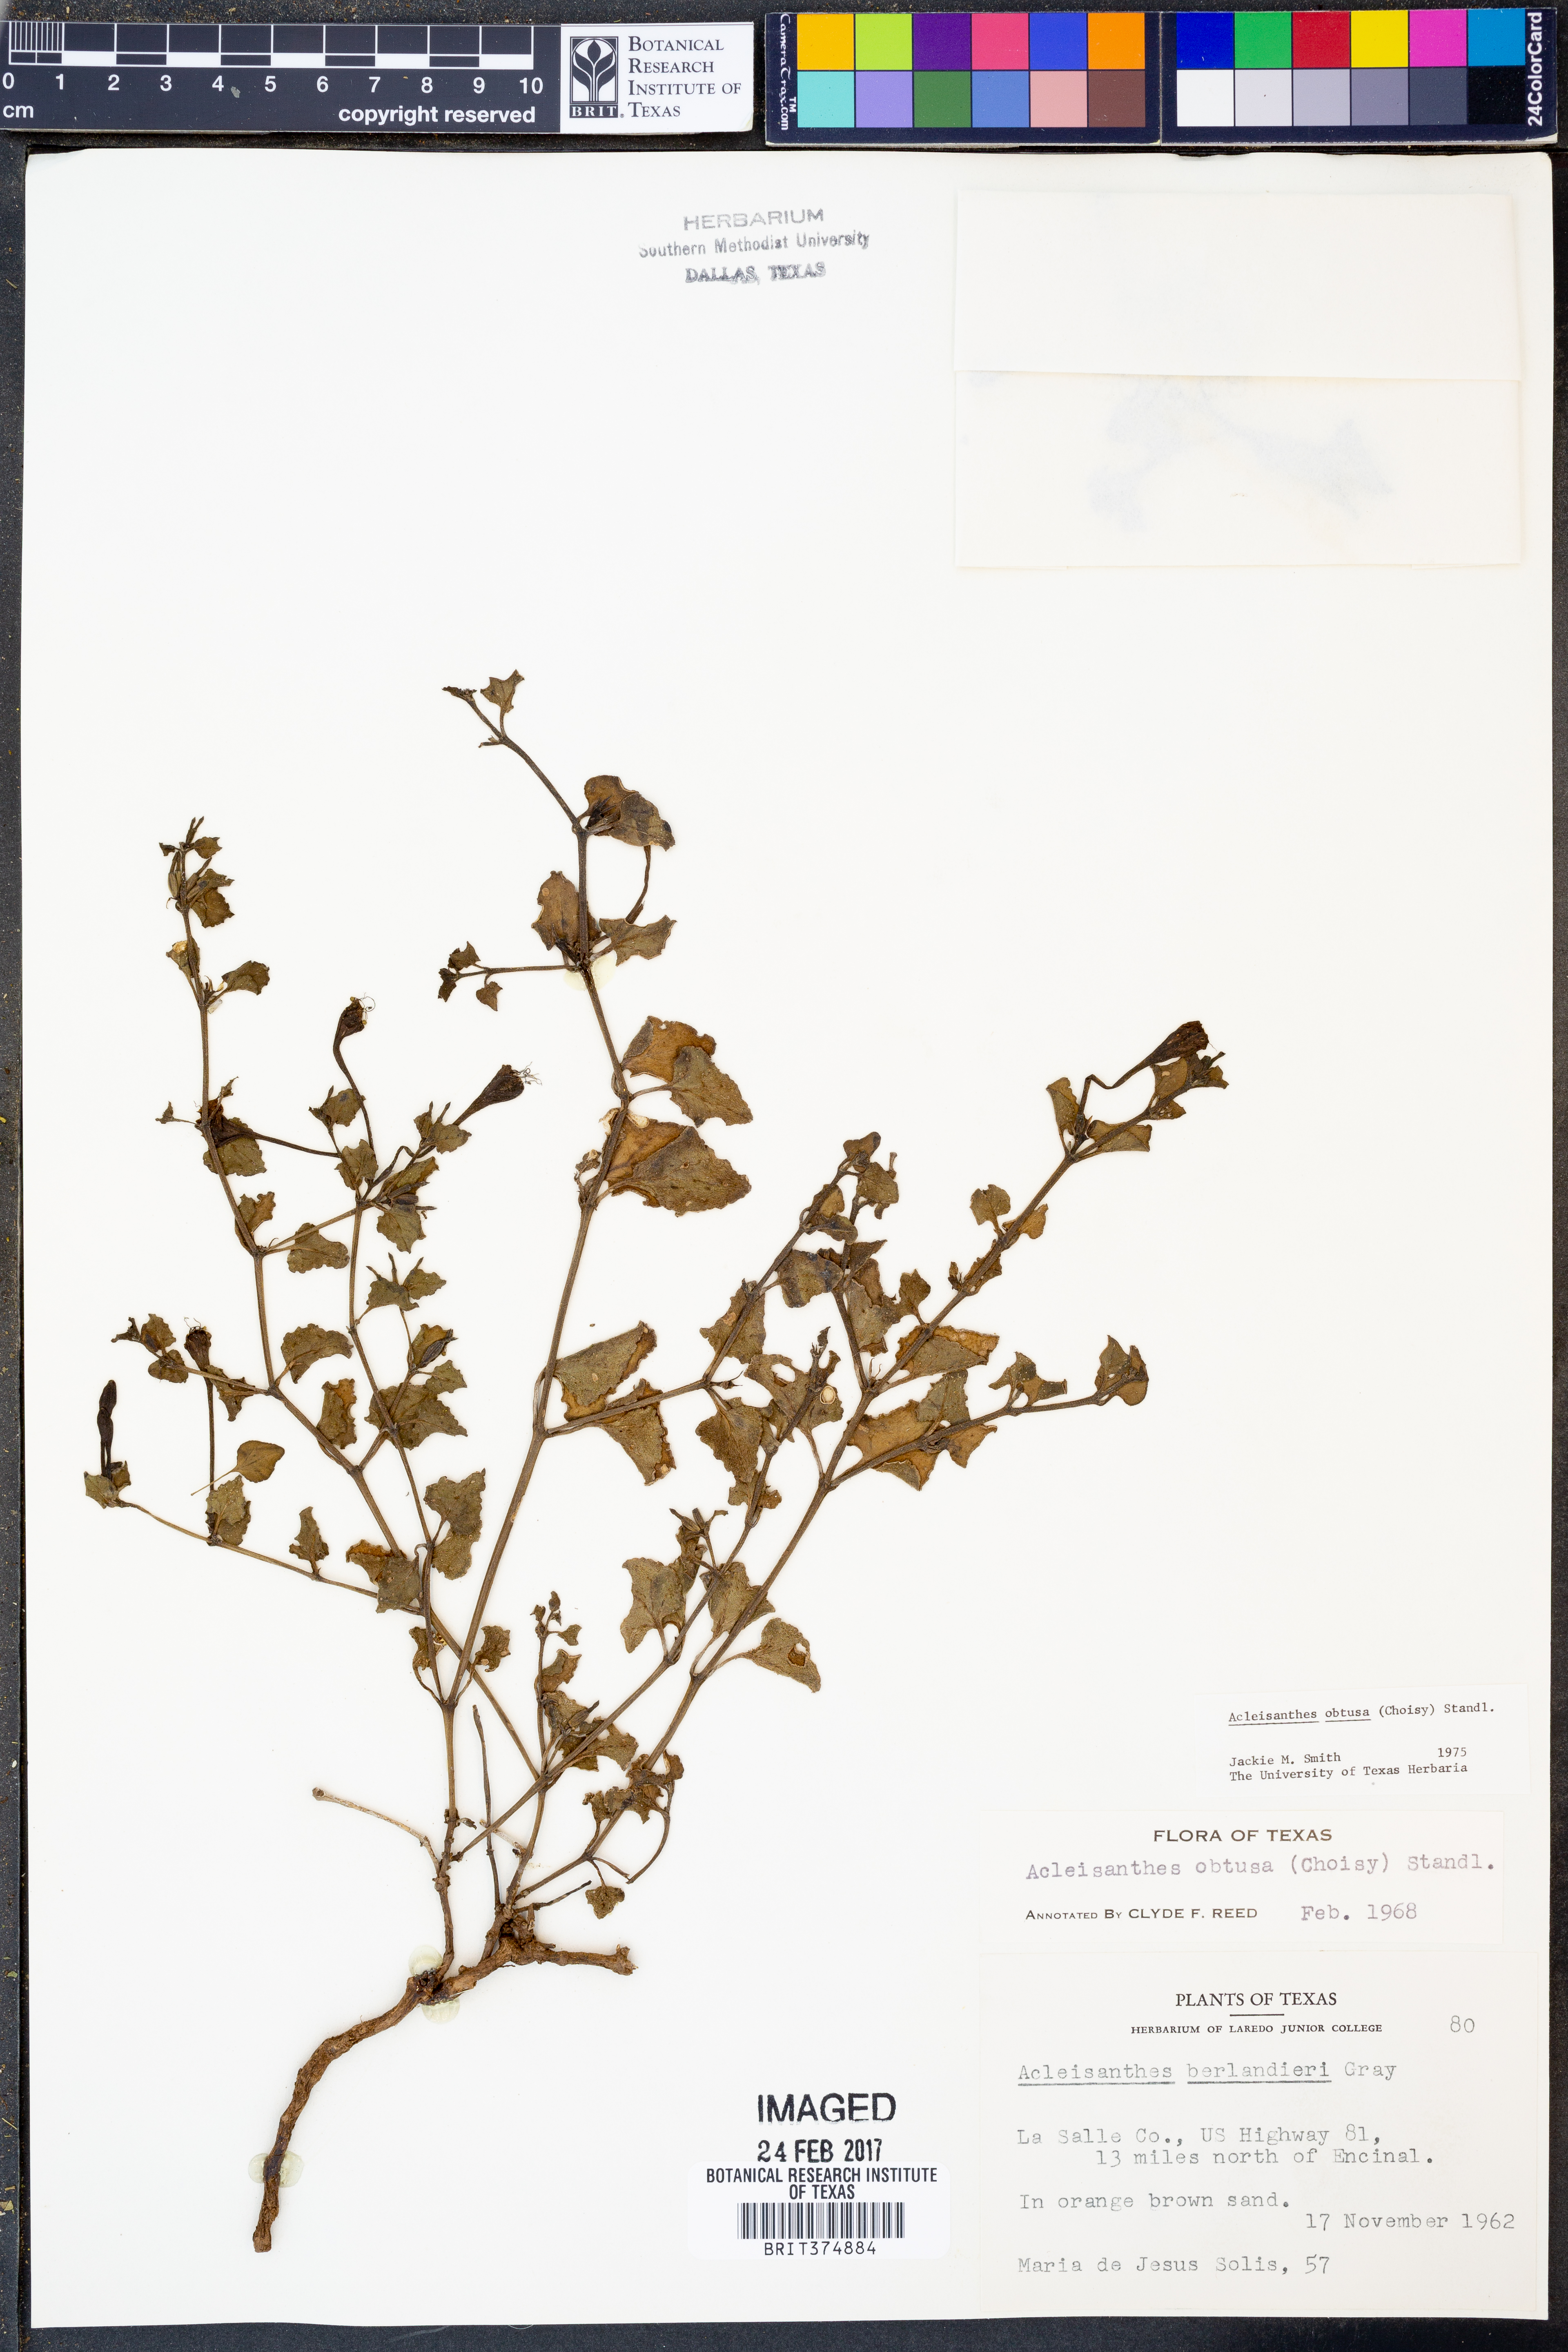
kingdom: Plantae
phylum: Tracheophyta
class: Magnoliopsida
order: Caryophyllales
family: Nyctaginaceae
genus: Acleisanthes
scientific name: Acleisanthes obtusa
